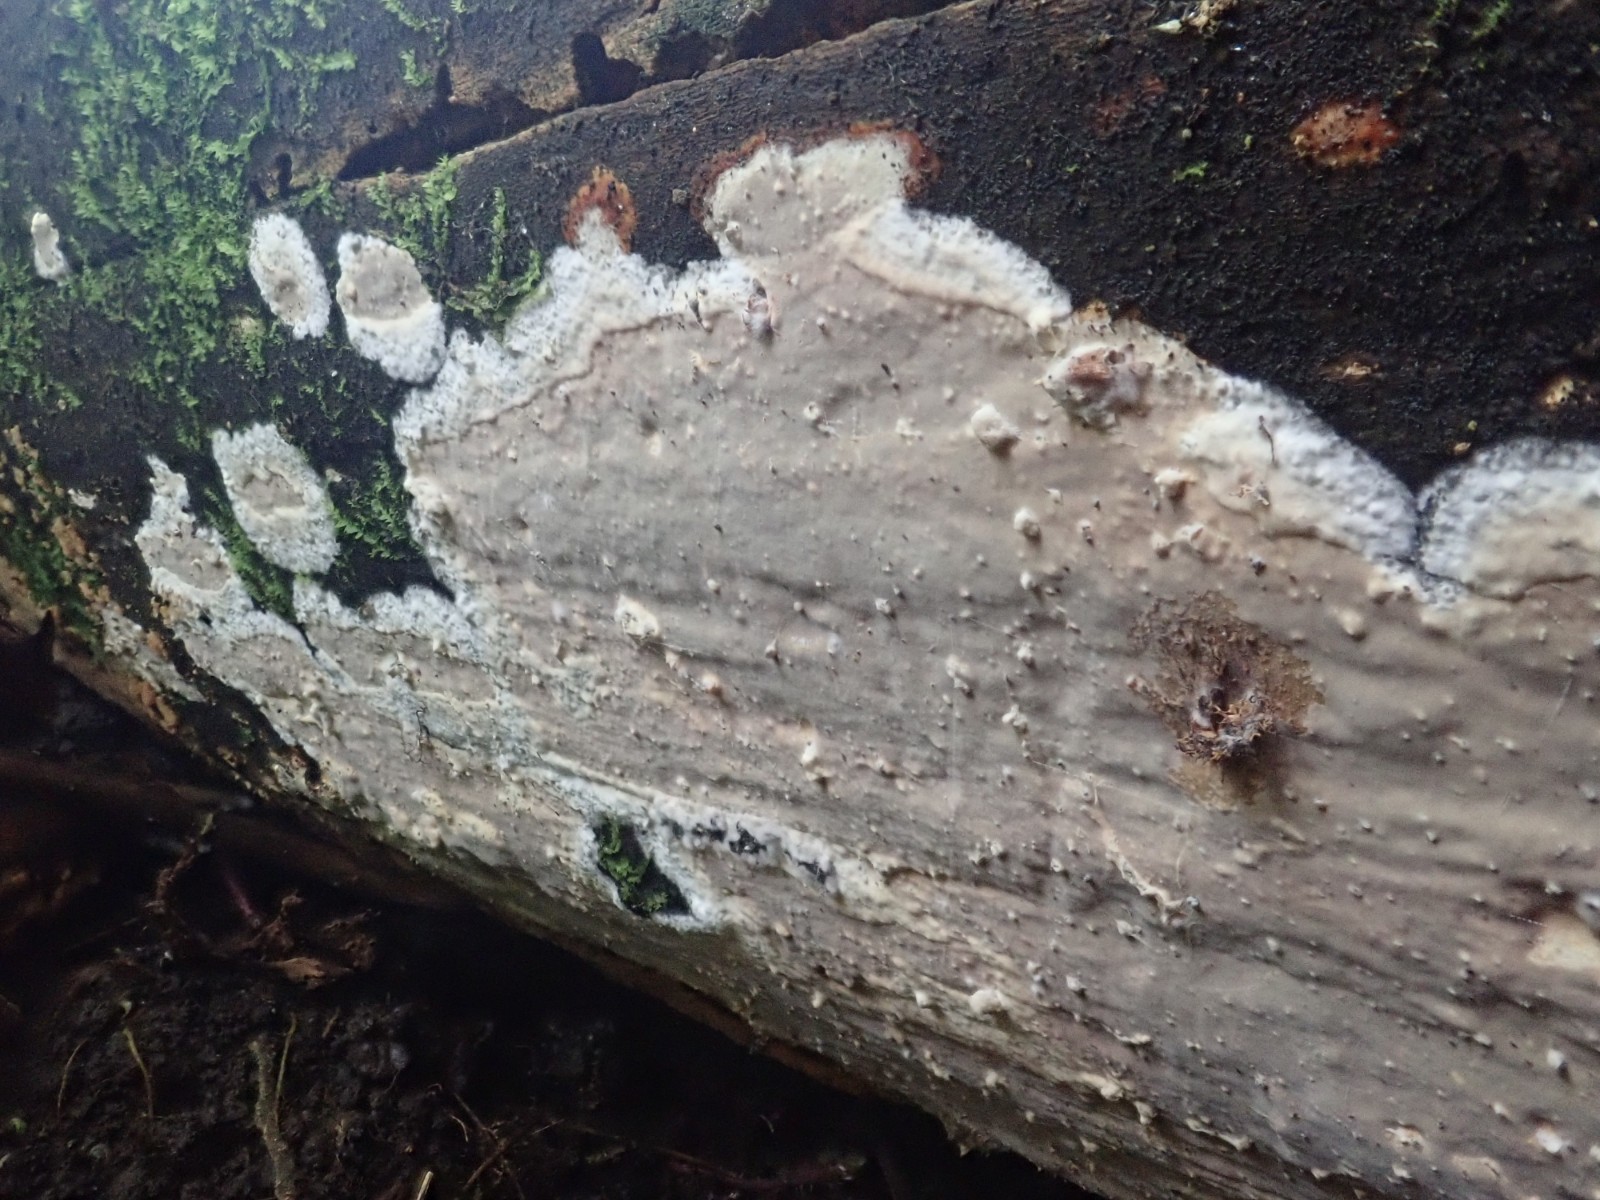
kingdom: Fungi
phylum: Basidiomycota
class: Agaricomycetes
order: Russulales
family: Peniophoraceae
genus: Scytinostroma
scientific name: Scytinostroma hemidichophyticum
